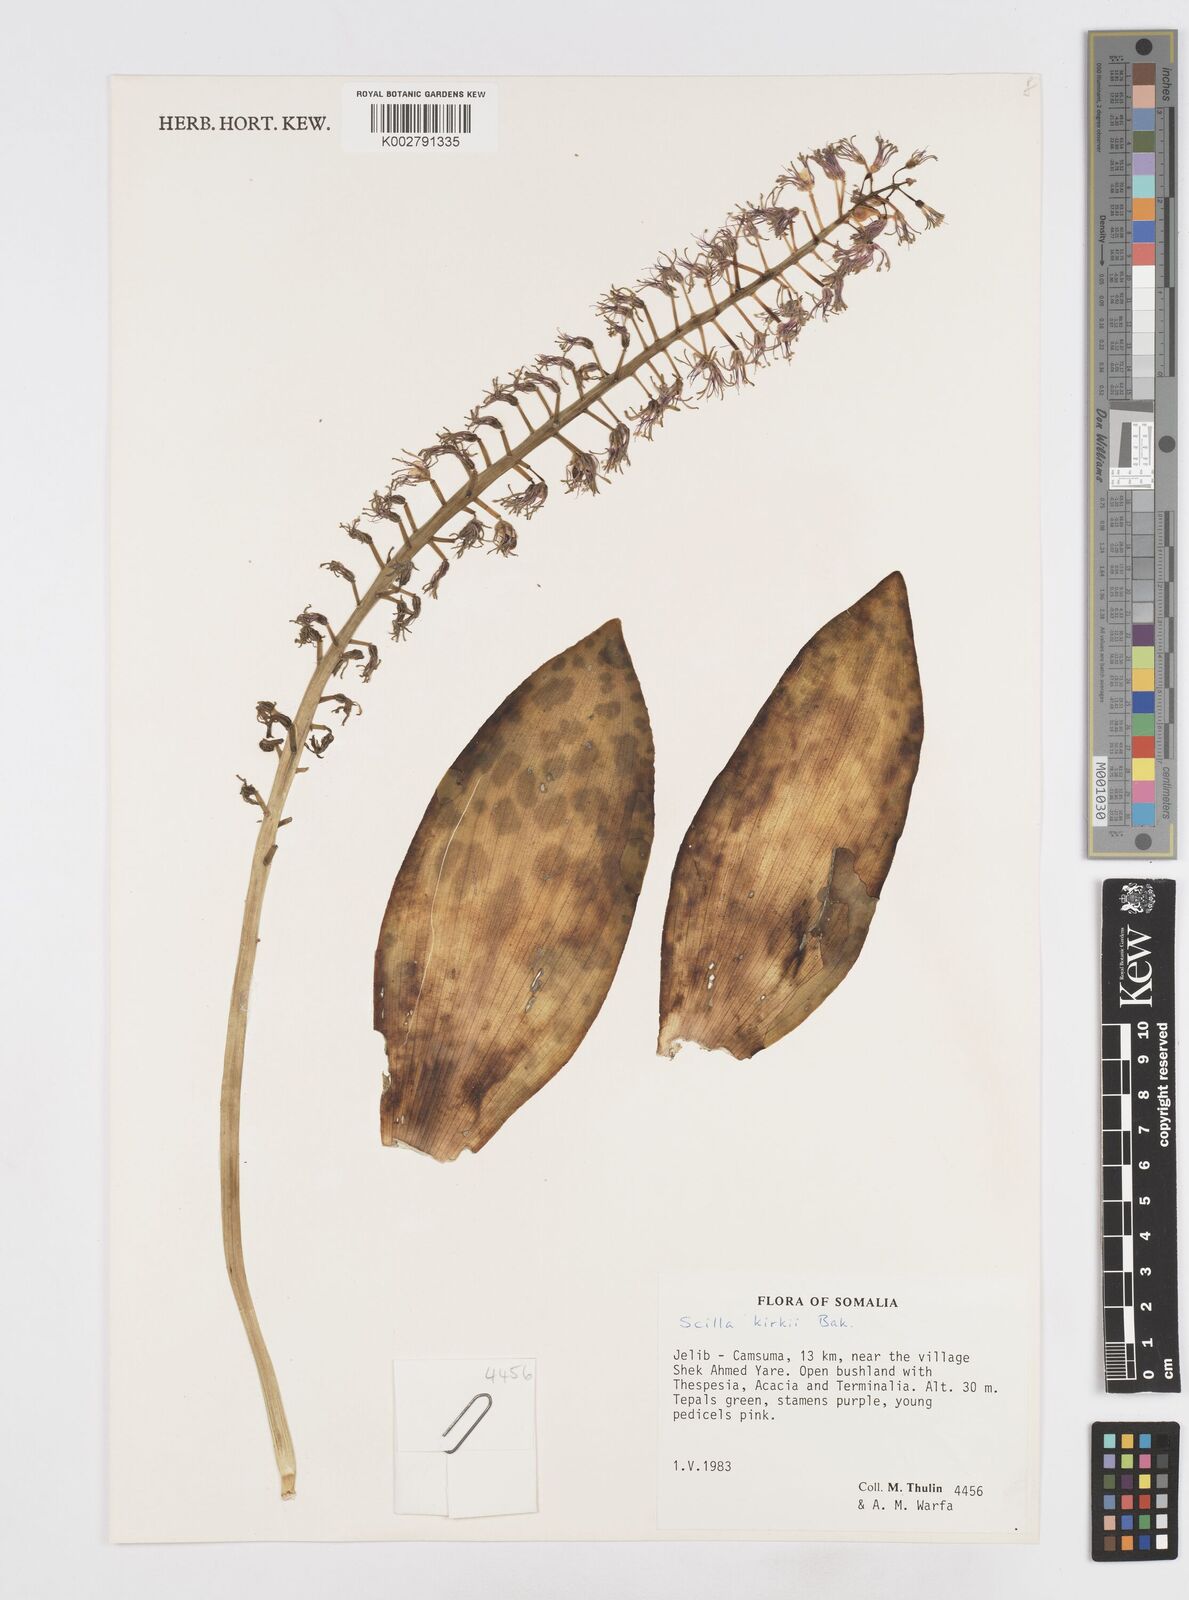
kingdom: Plantae
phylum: Tracheophyta
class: Liliopsida
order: Asparagales
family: Asparagaceae
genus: Ledebouria
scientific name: Ledebouria kirkii
